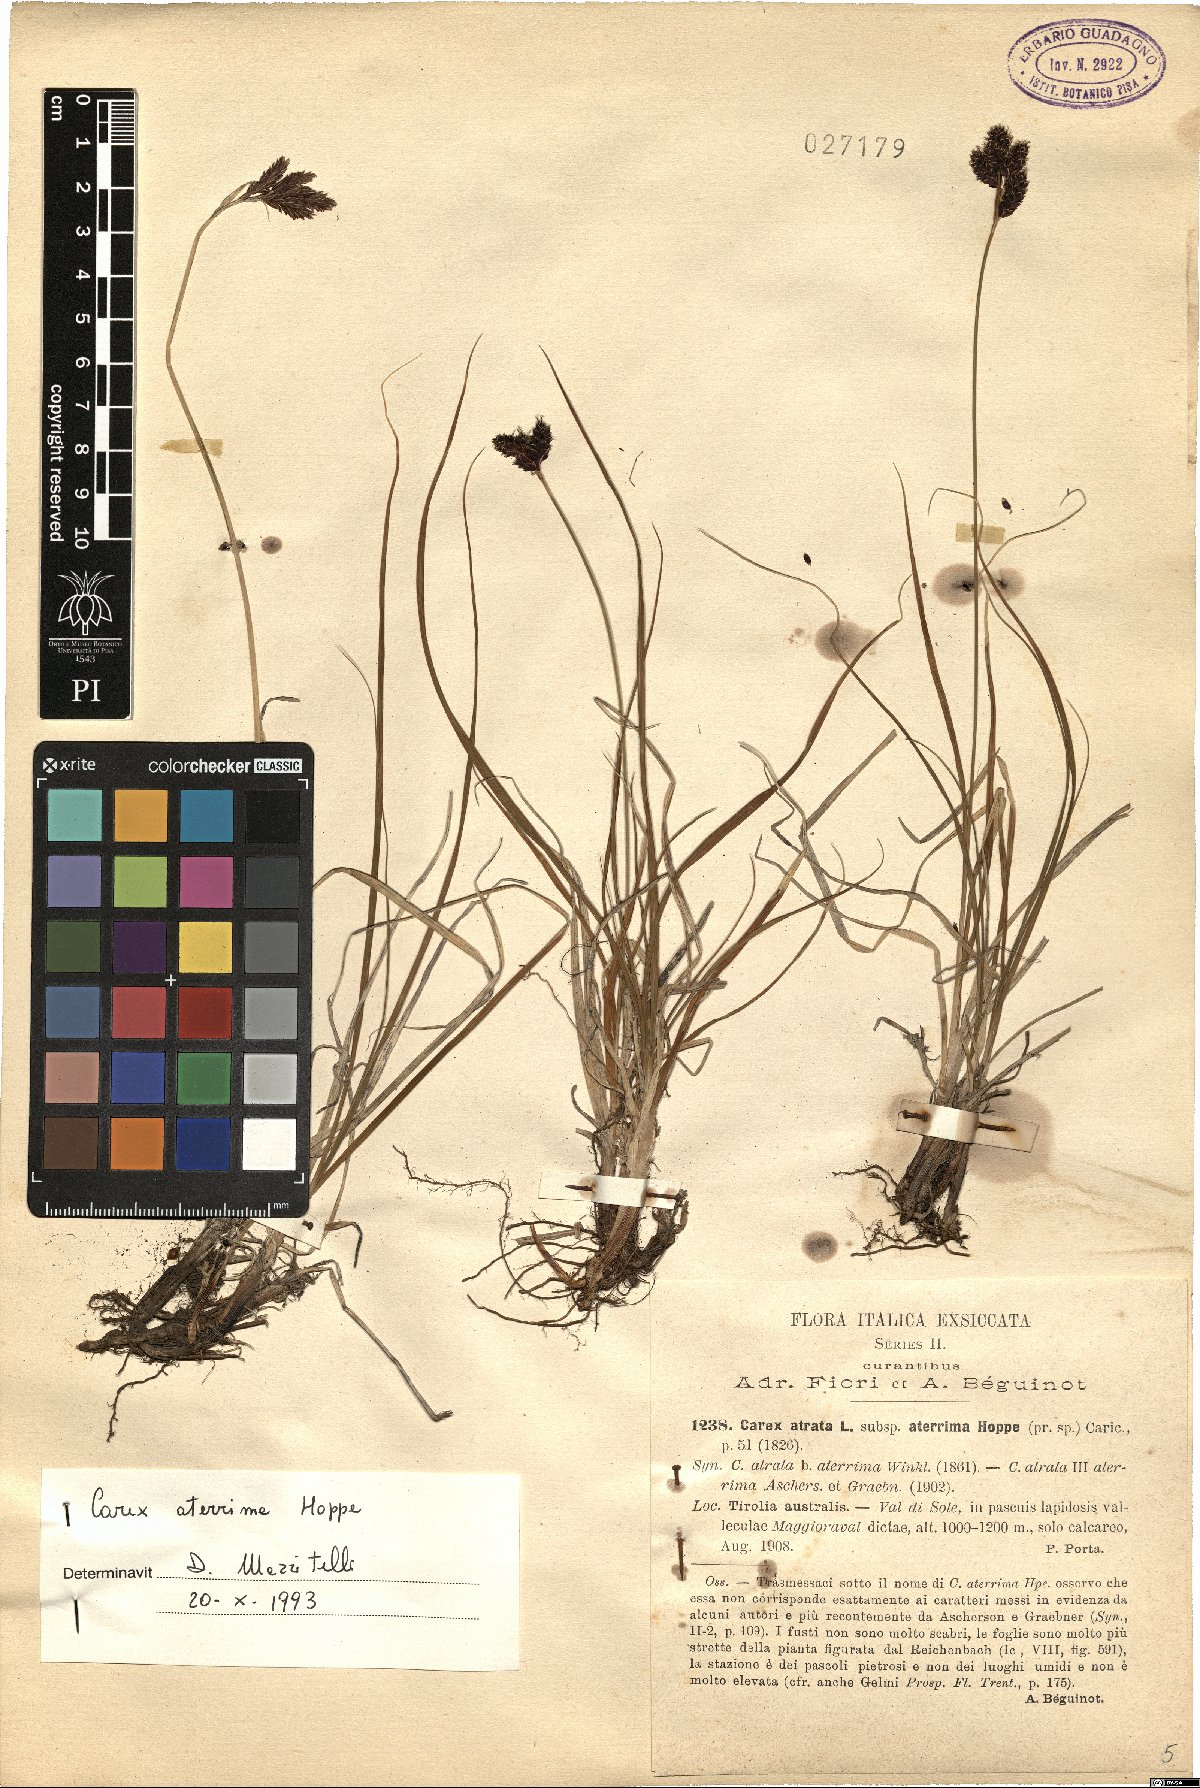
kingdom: Plantae
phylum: Tracheophyta
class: Liliopsida
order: Poales
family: Cyperaceae
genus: Carex
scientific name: Carex aterrima
